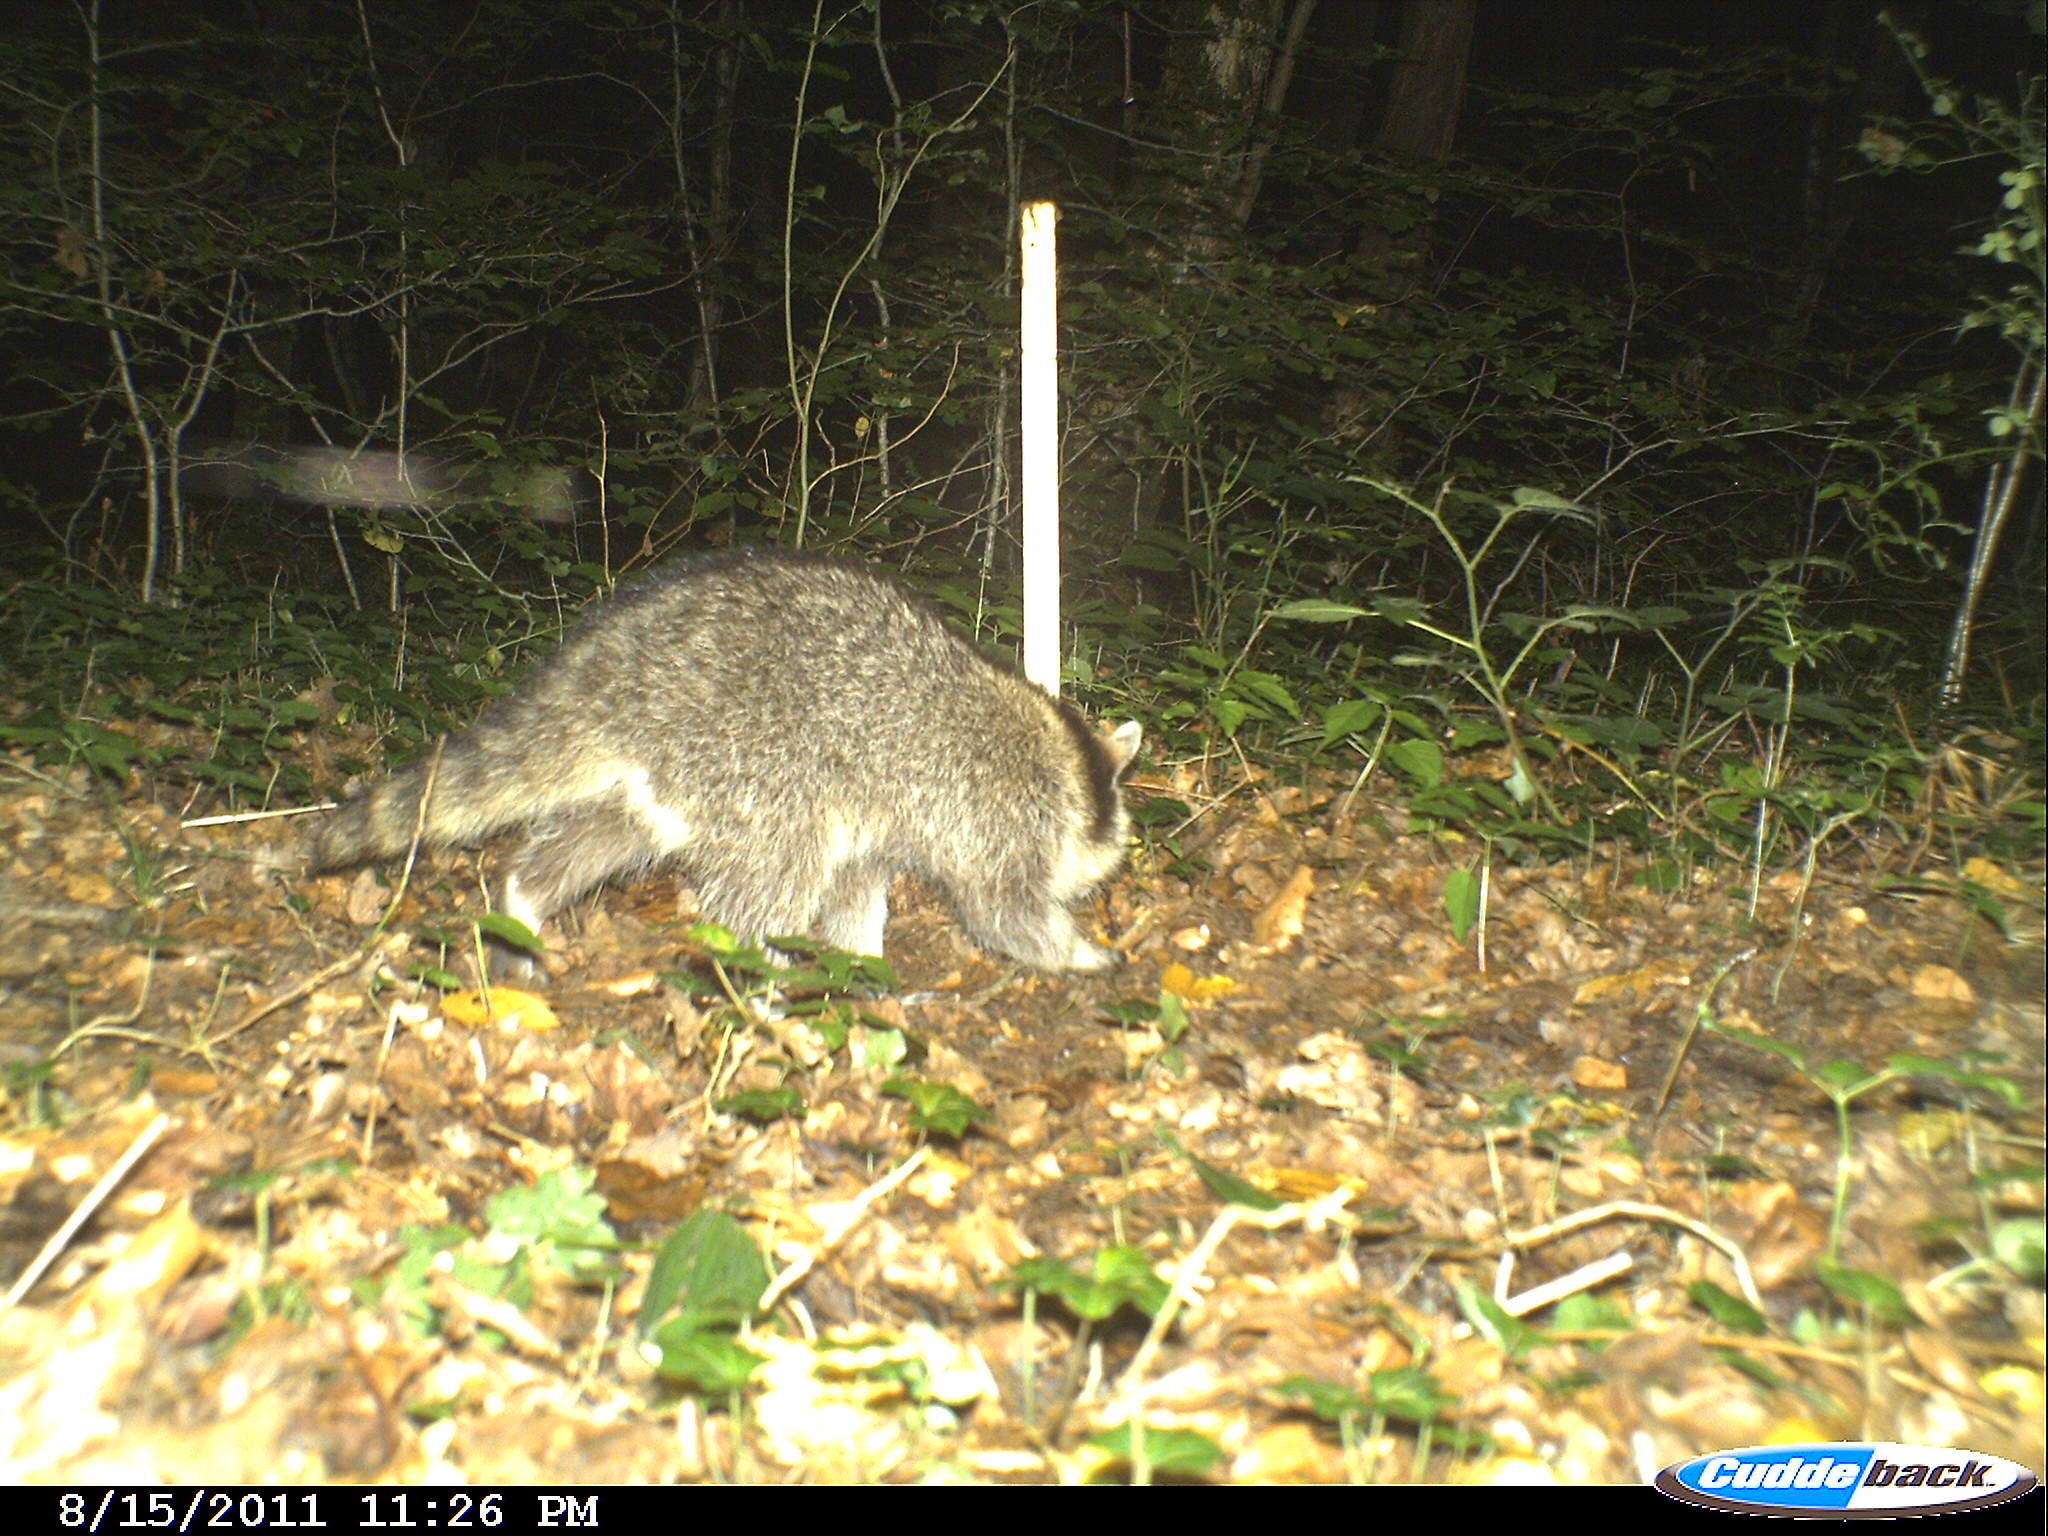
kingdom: Animalia
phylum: Chordata
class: Mammalia
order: Carnivora
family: Procyonidae
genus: Procyon
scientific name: Procyon lotor
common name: Raccoon
